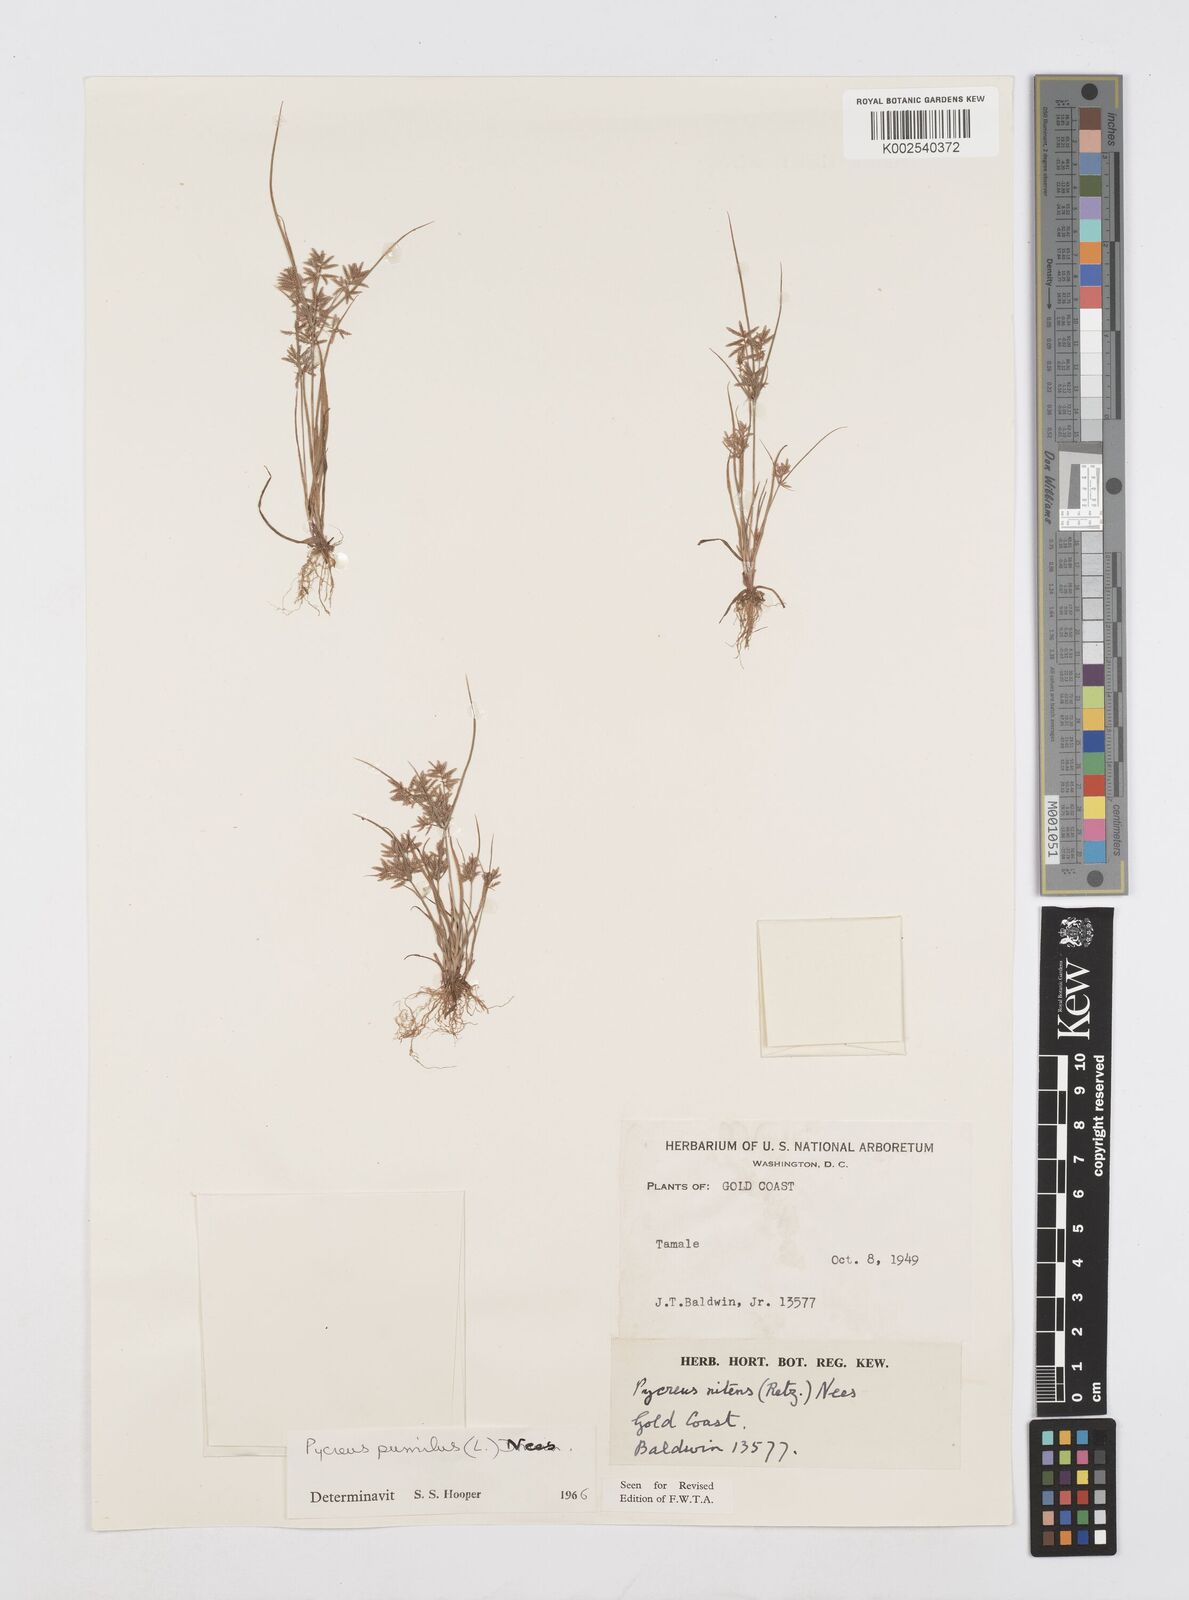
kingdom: Plantae
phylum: Tracheophyta
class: Liliopsida
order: Poales
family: Cyperaceae
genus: Cyperus
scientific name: Cyperus pumilus
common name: Low flatsedge
